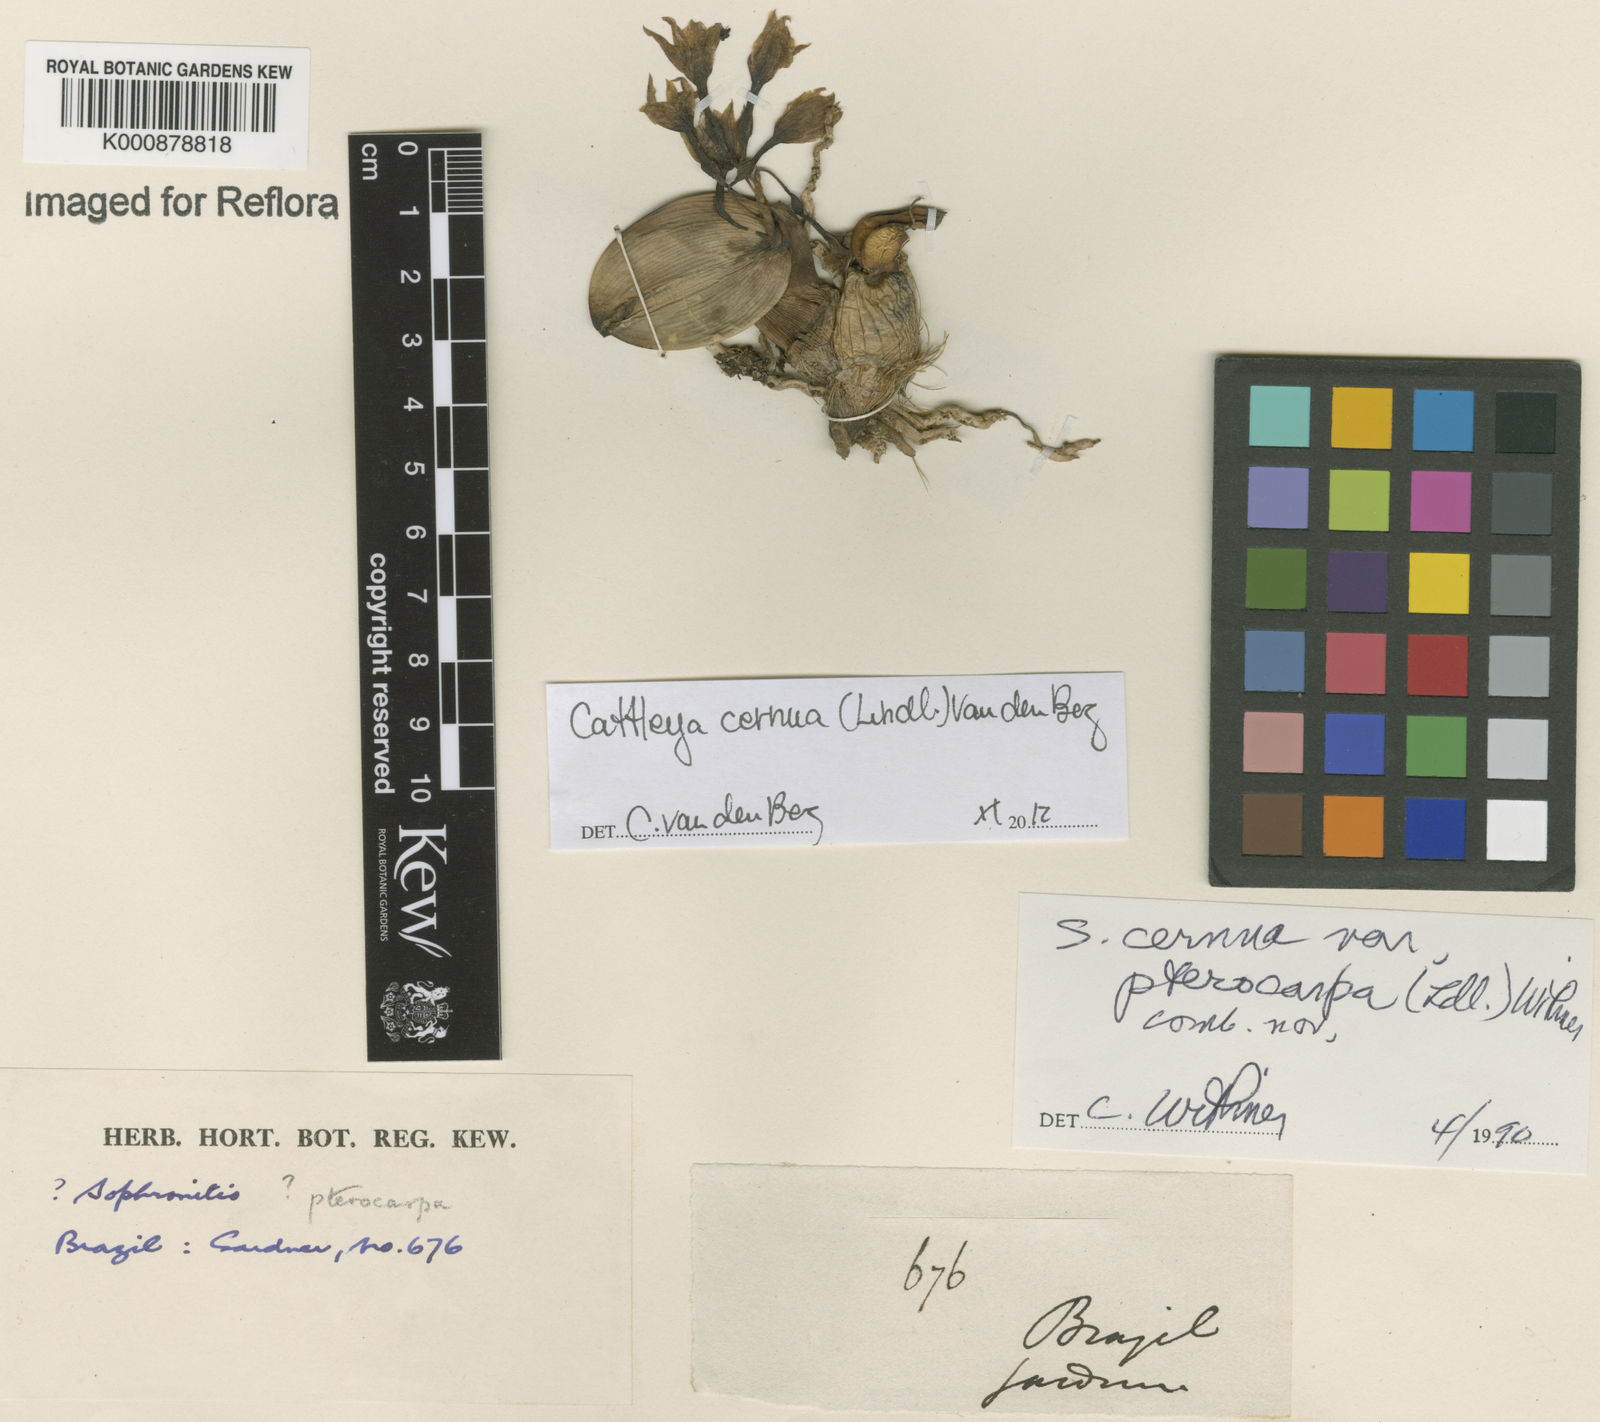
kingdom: Plantae
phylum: Tracheophyta
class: Liliopsida
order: Asparagales
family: Orchidaceae
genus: Cattleya
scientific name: Cattleya
